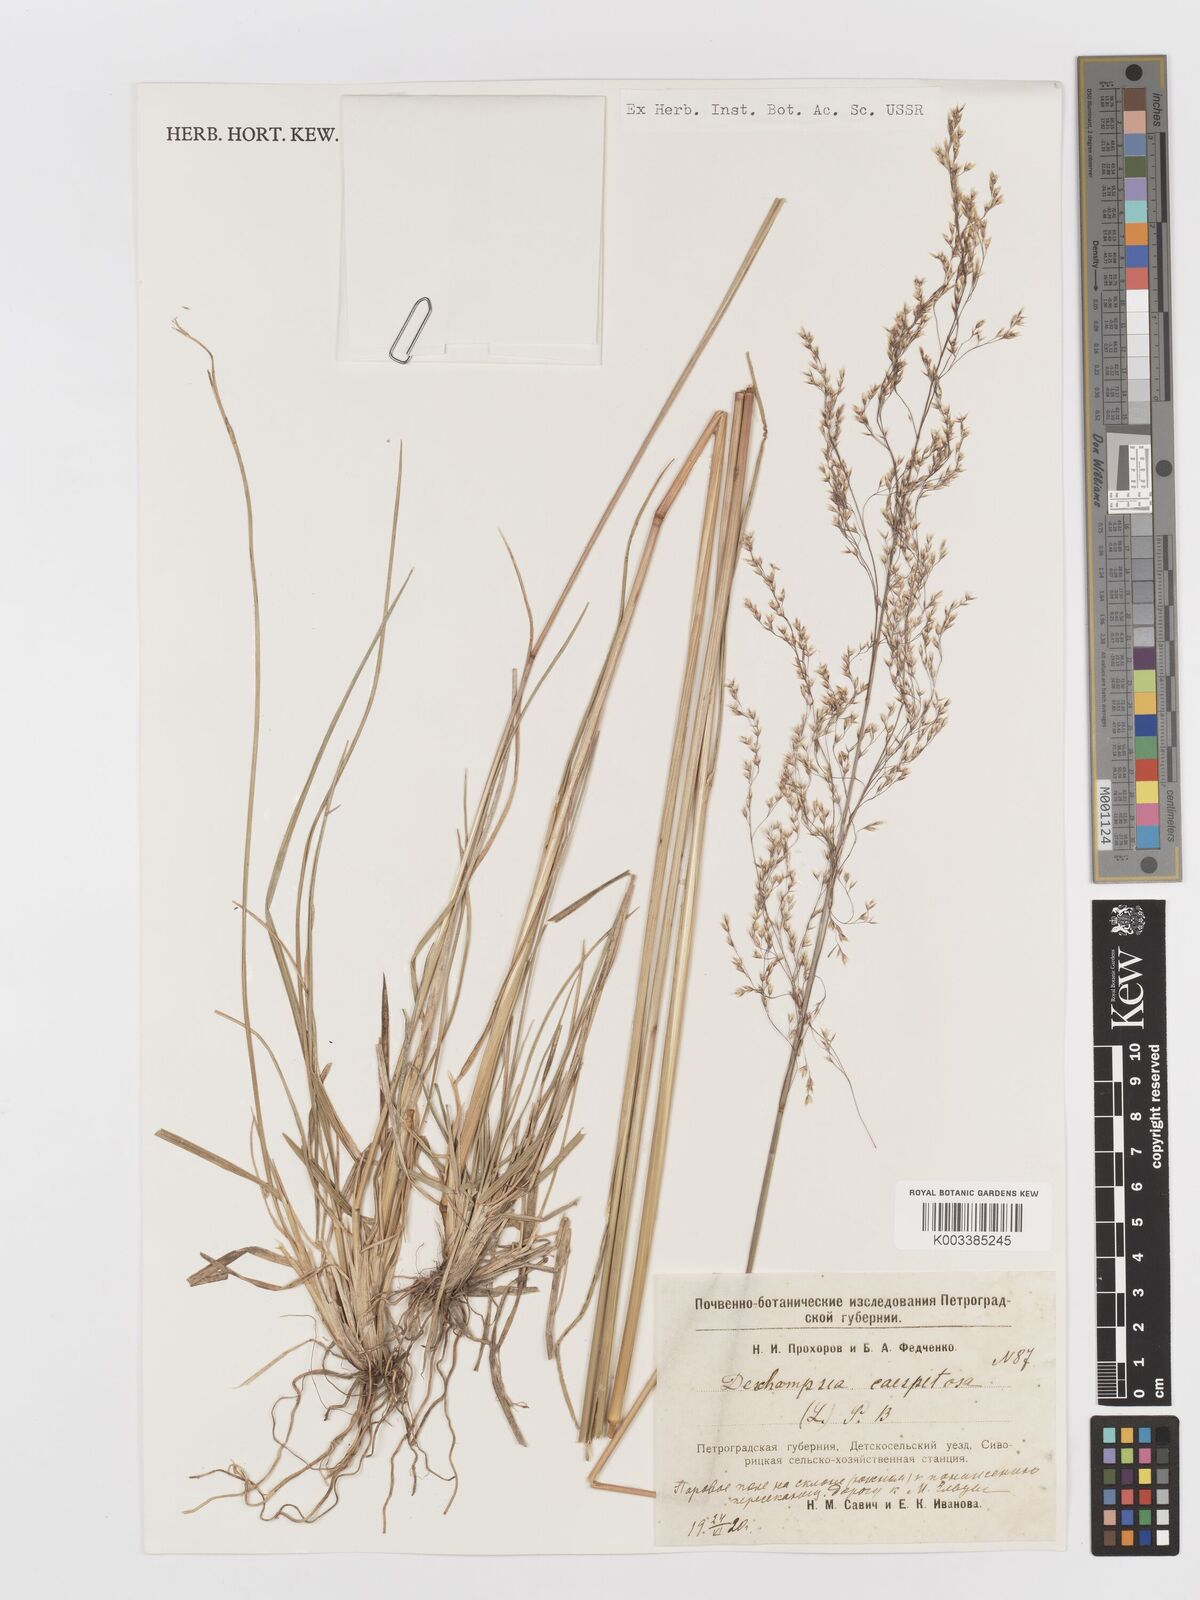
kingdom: Plantae
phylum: Tracheophyta
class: Liliopsida
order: Poales
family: Poaceae
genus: Deschampsia
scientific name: Deschampsia cespitosa
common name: Tufted hair-grass
